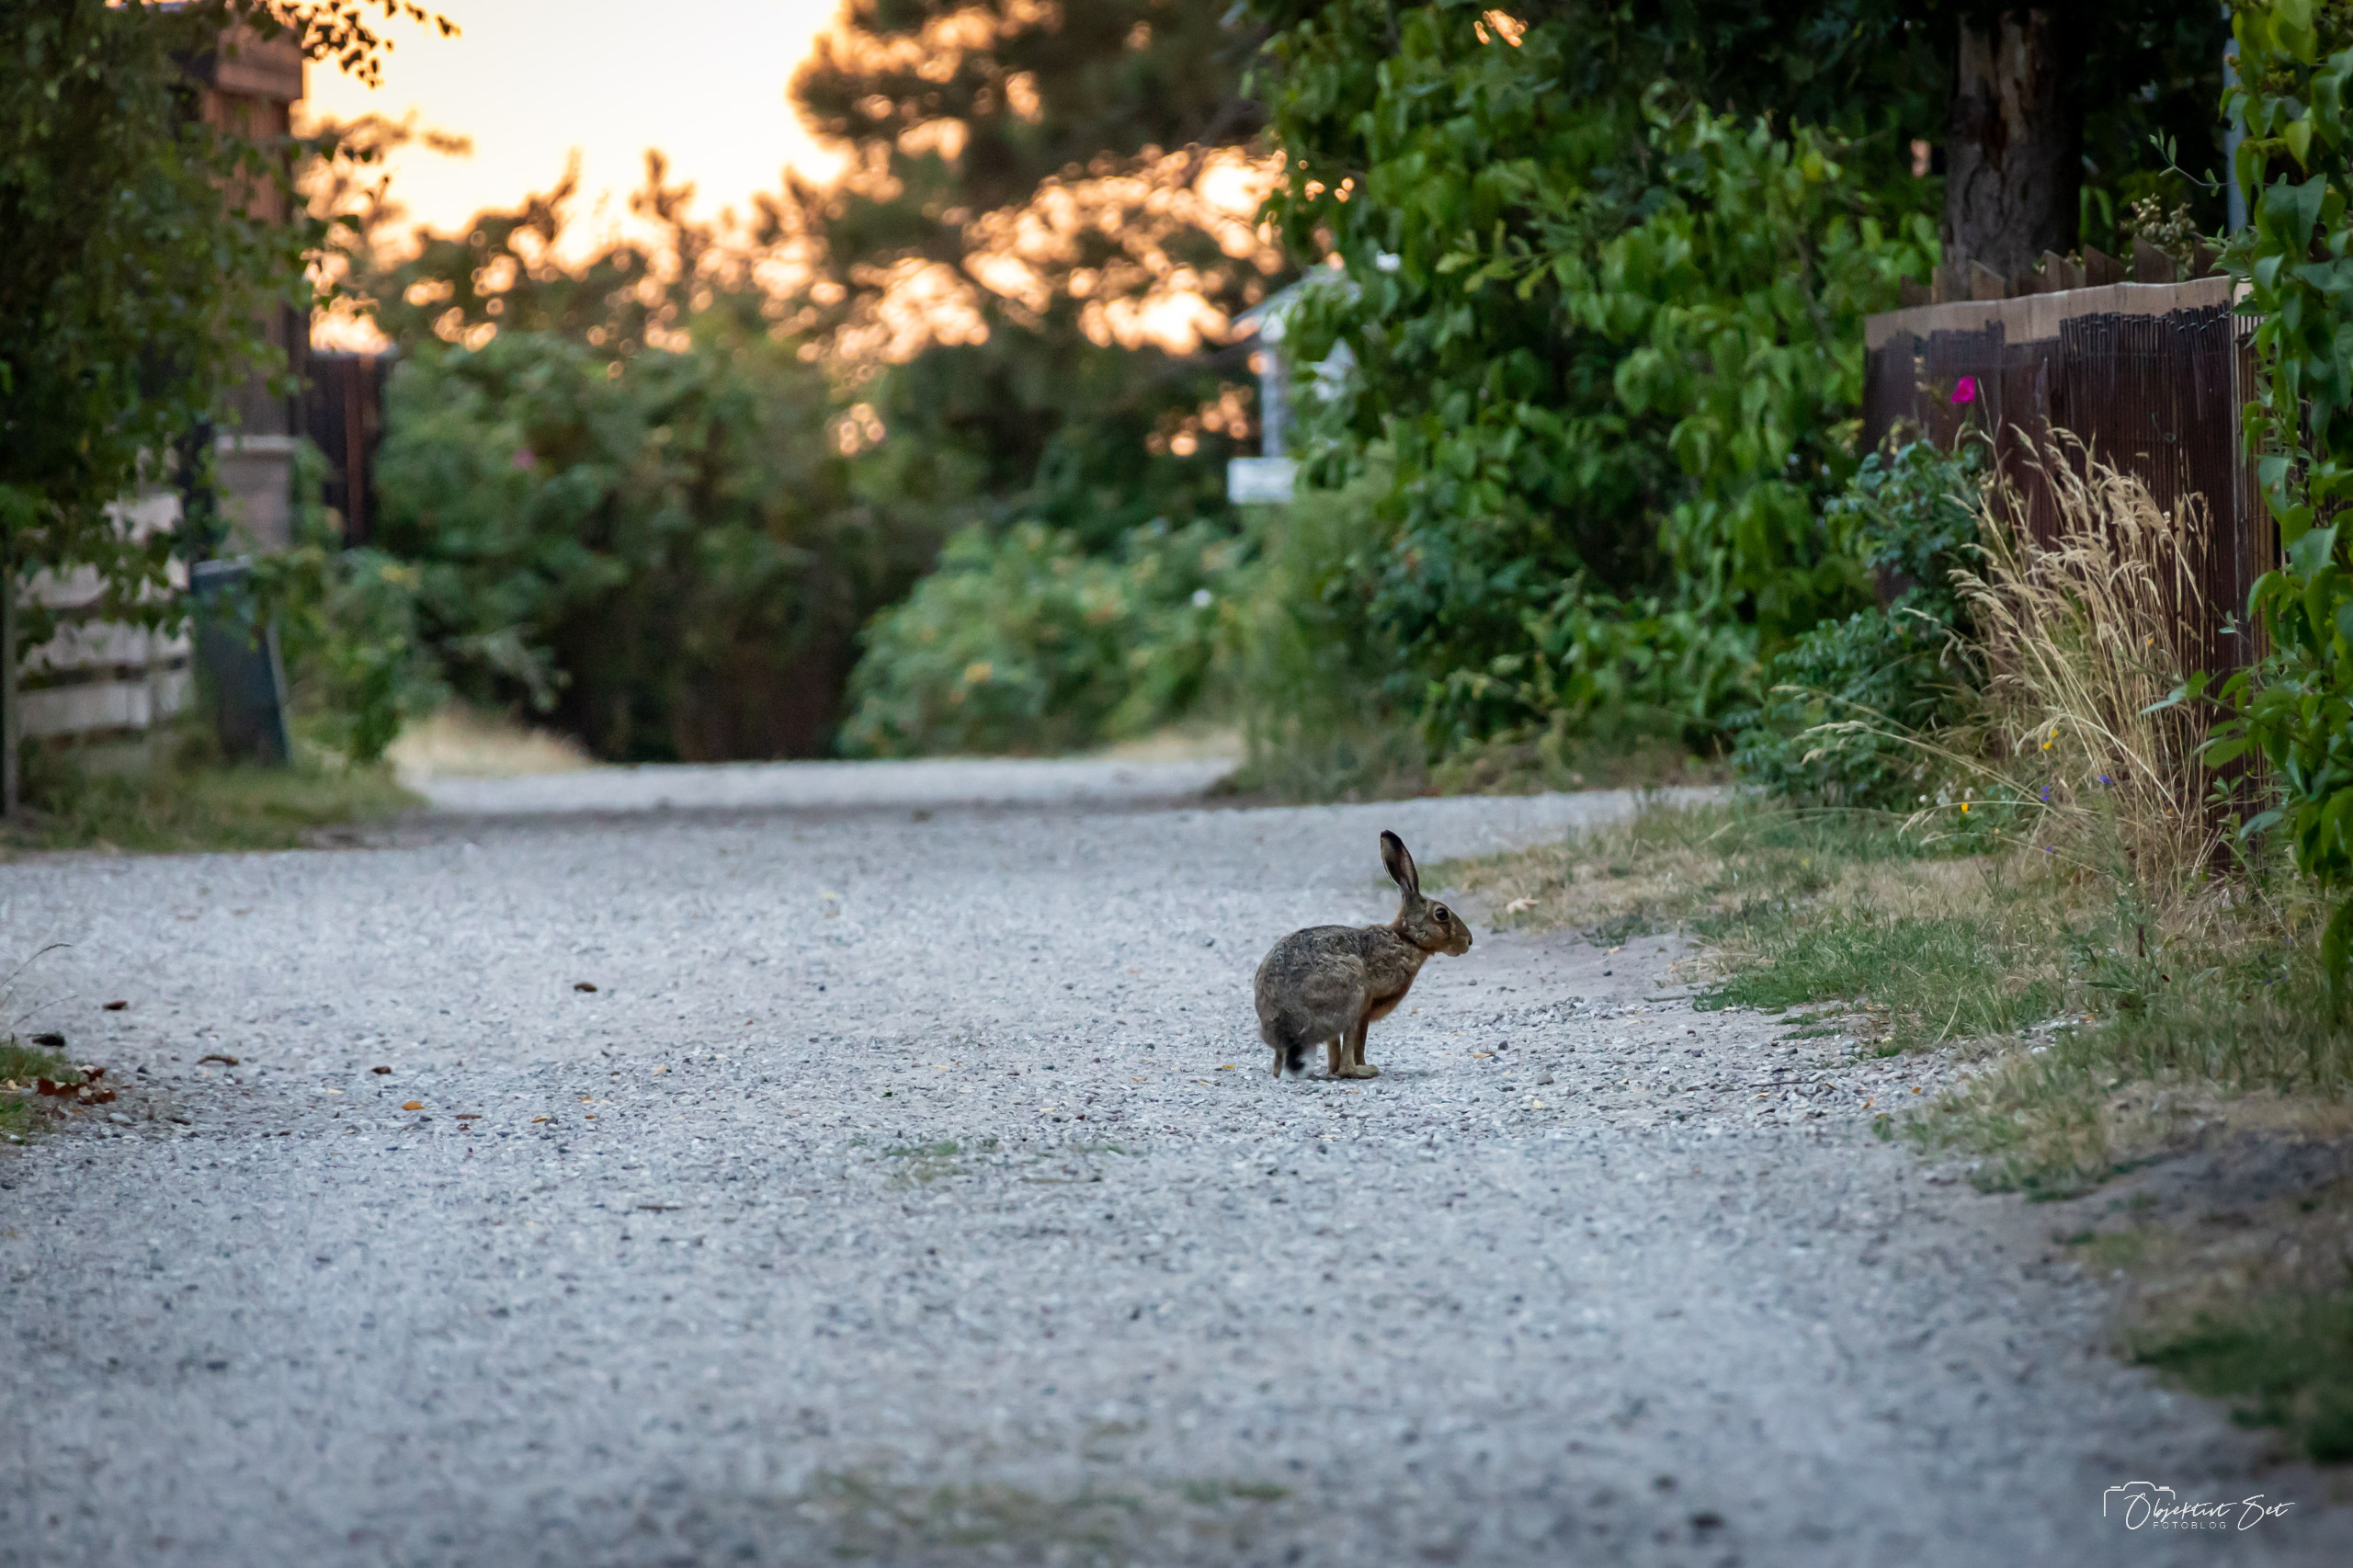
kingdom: Animalia
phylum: Chordata
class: Mammalia
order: Lagomorpha
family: Leporidae
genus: Lepus
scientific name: Lepus europaeus
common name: Hare
